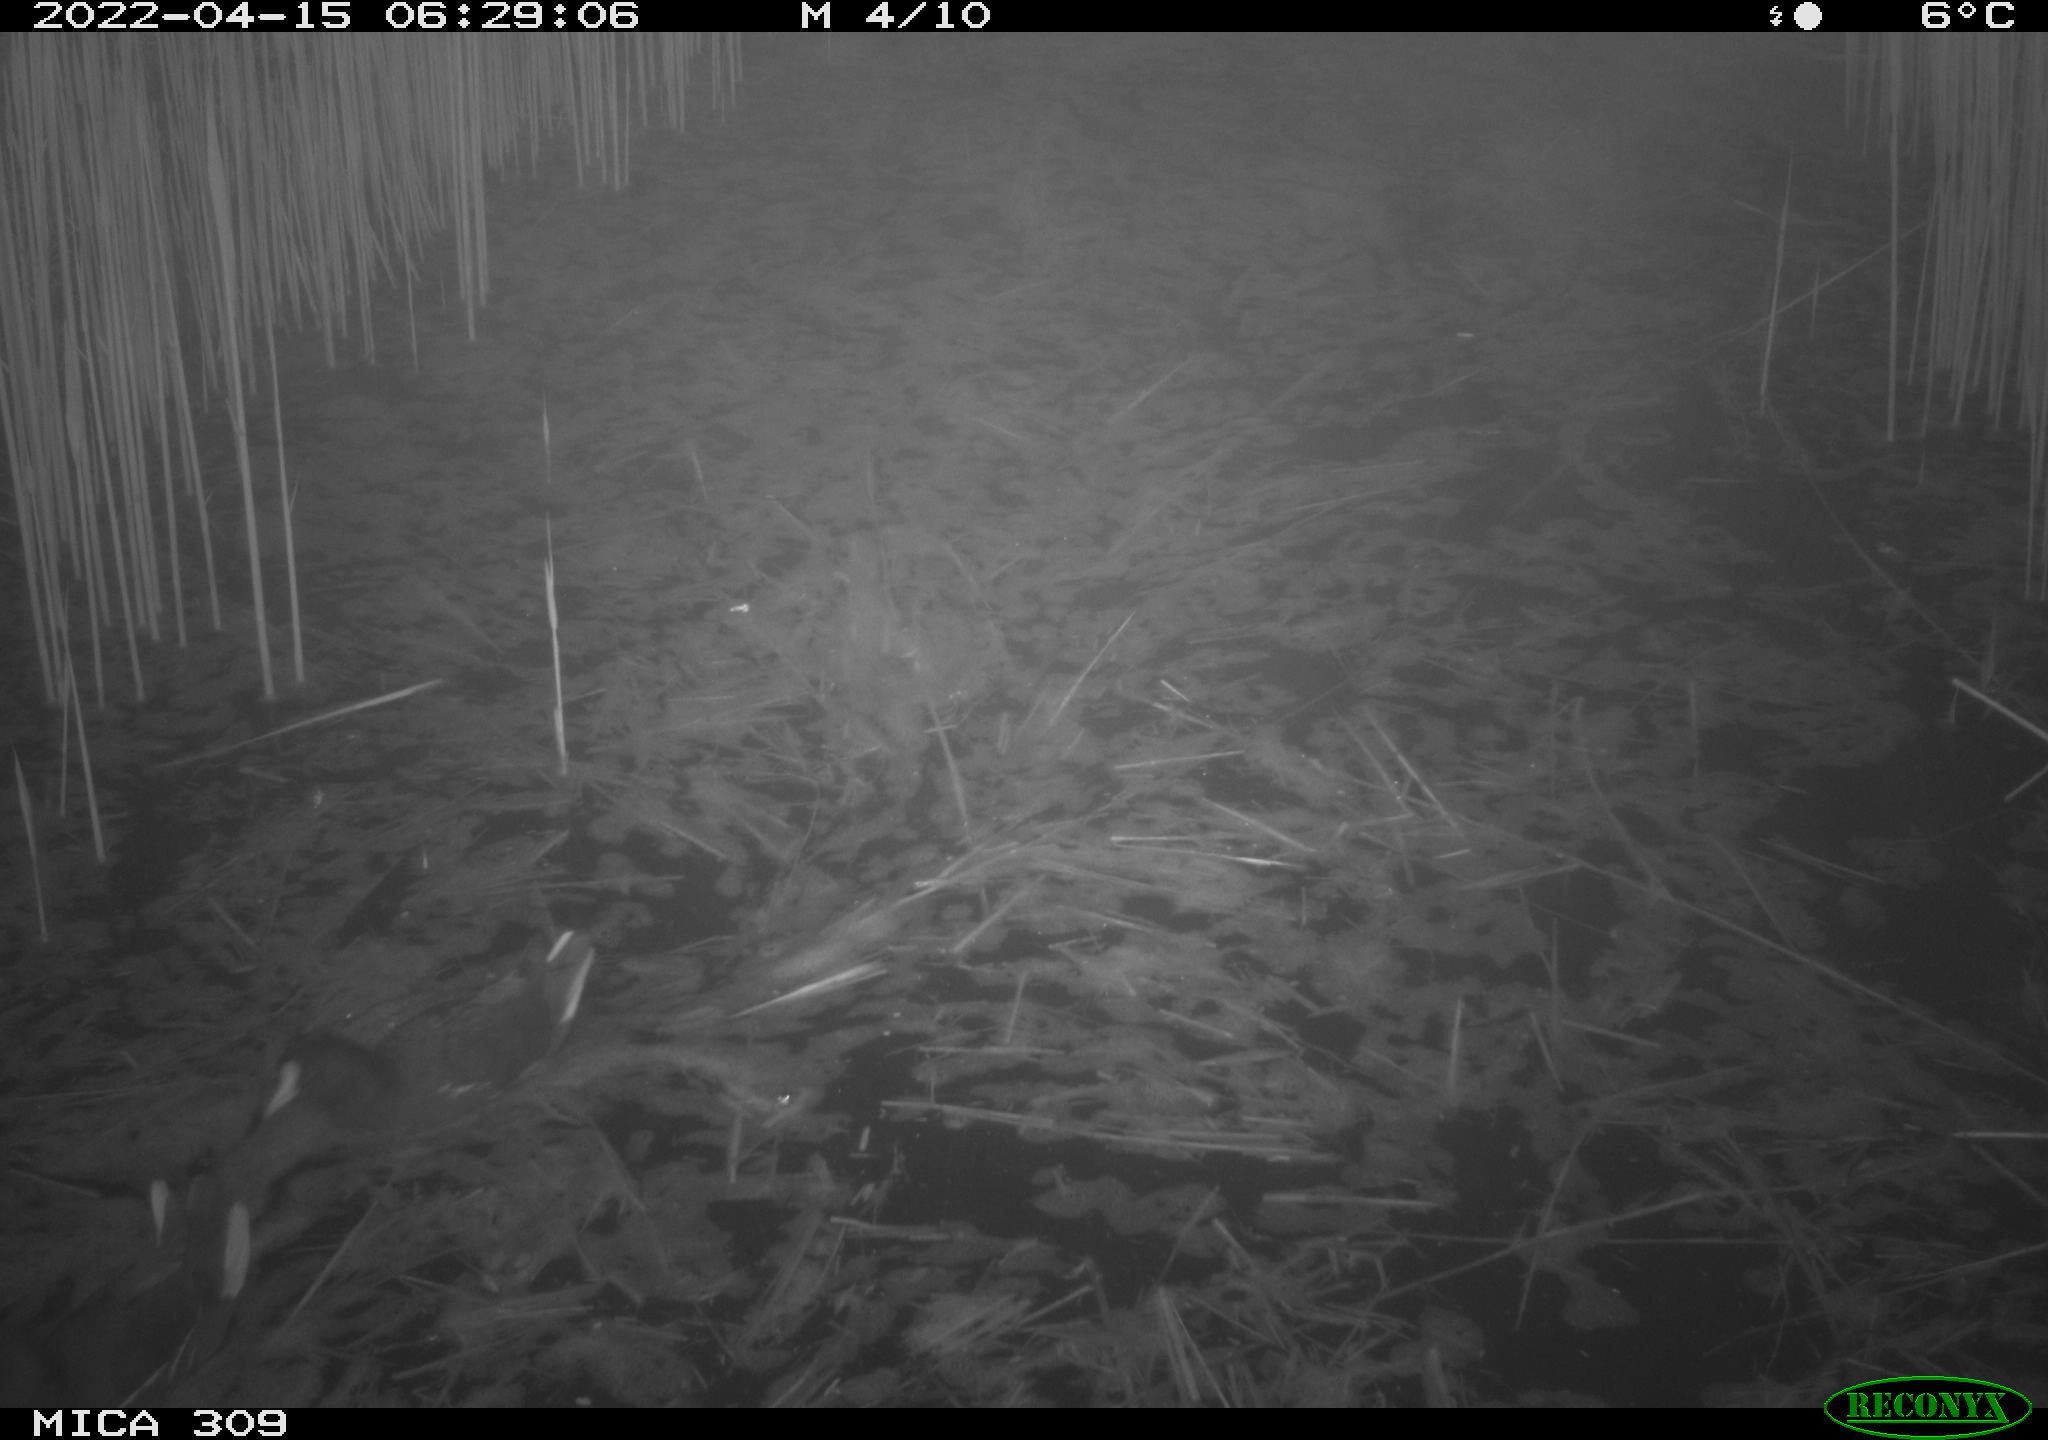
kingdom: Animalia
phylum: Chordata
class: Aves
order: Gruiformes
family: Rallidae
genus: Gallinula
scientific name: Gallinula chloropus
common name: Common moorhen
